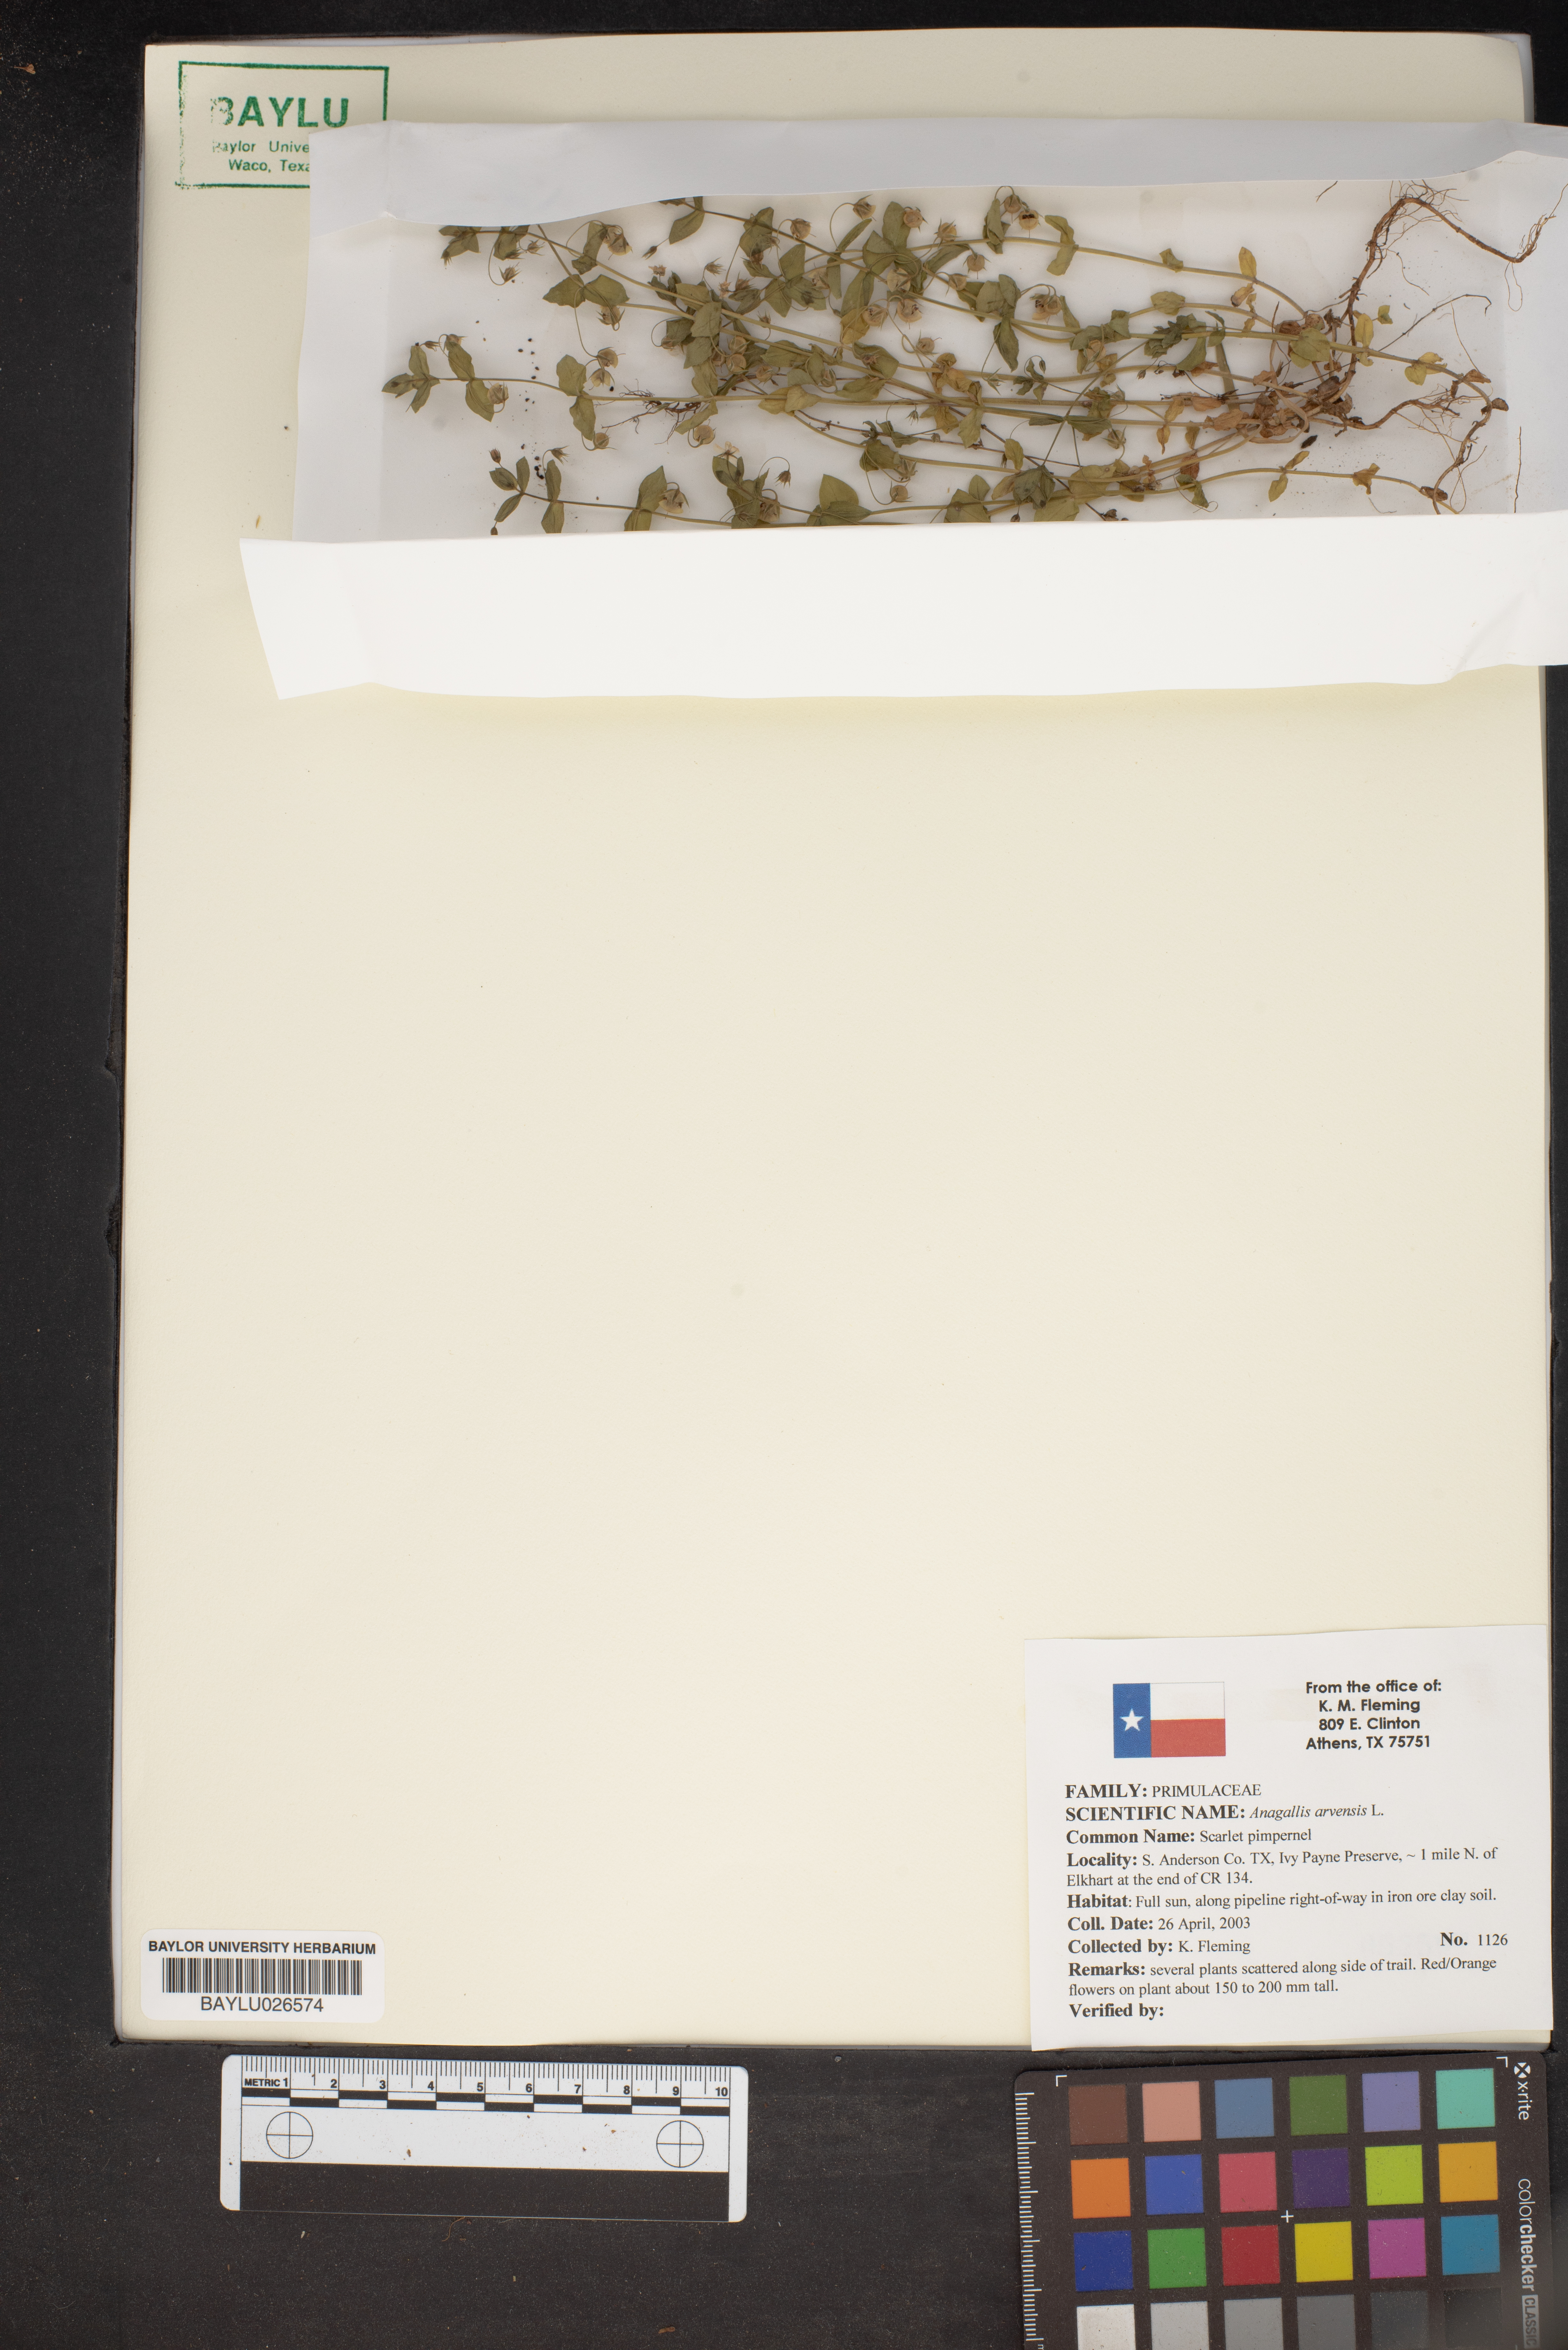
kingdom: Plantae
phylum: Tracheophyta
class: Magnoliopsida
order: Ericales
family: Primulaceae
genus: Lysimachia
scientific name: Lysimachia arvensis
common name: Scarlet pimpernel
